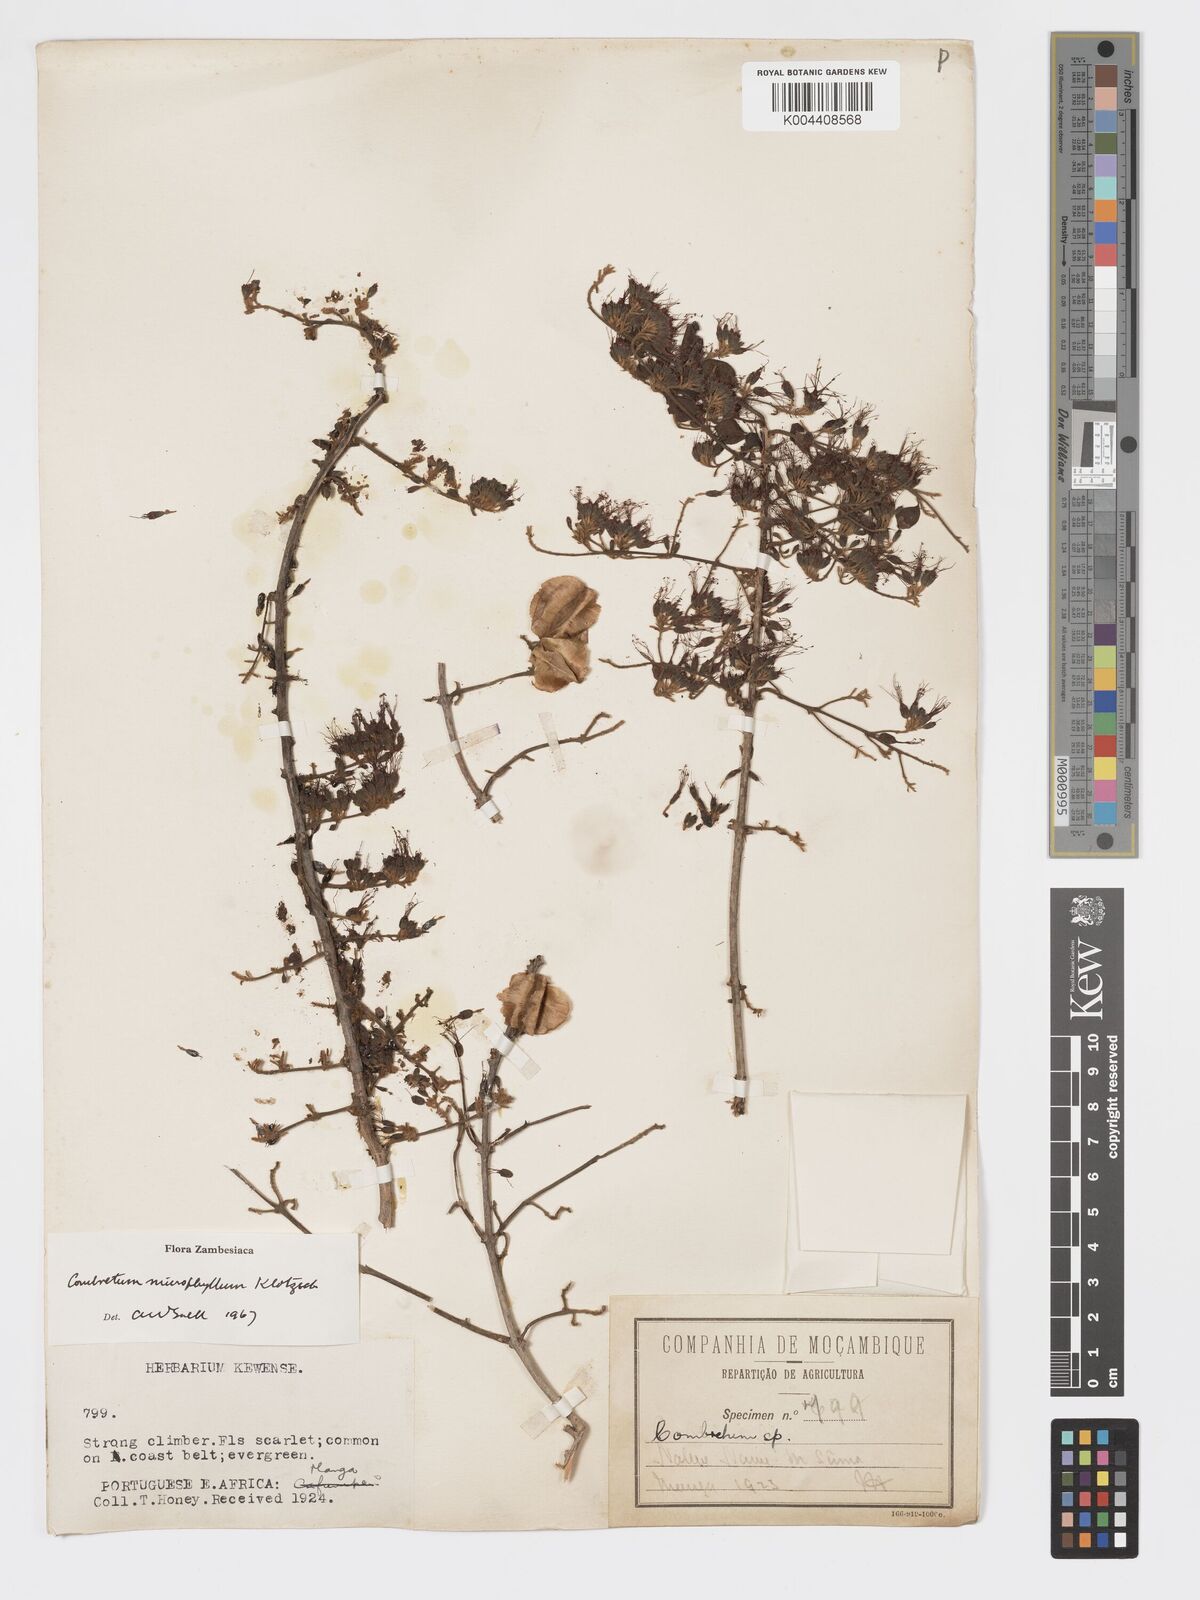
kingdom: Plantae
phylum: Tracheophyta
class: Magnoliopsida
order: Myrtales
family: Combretaceae
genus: Combretum
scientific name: Combretum microphyllum
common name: Burningbush
